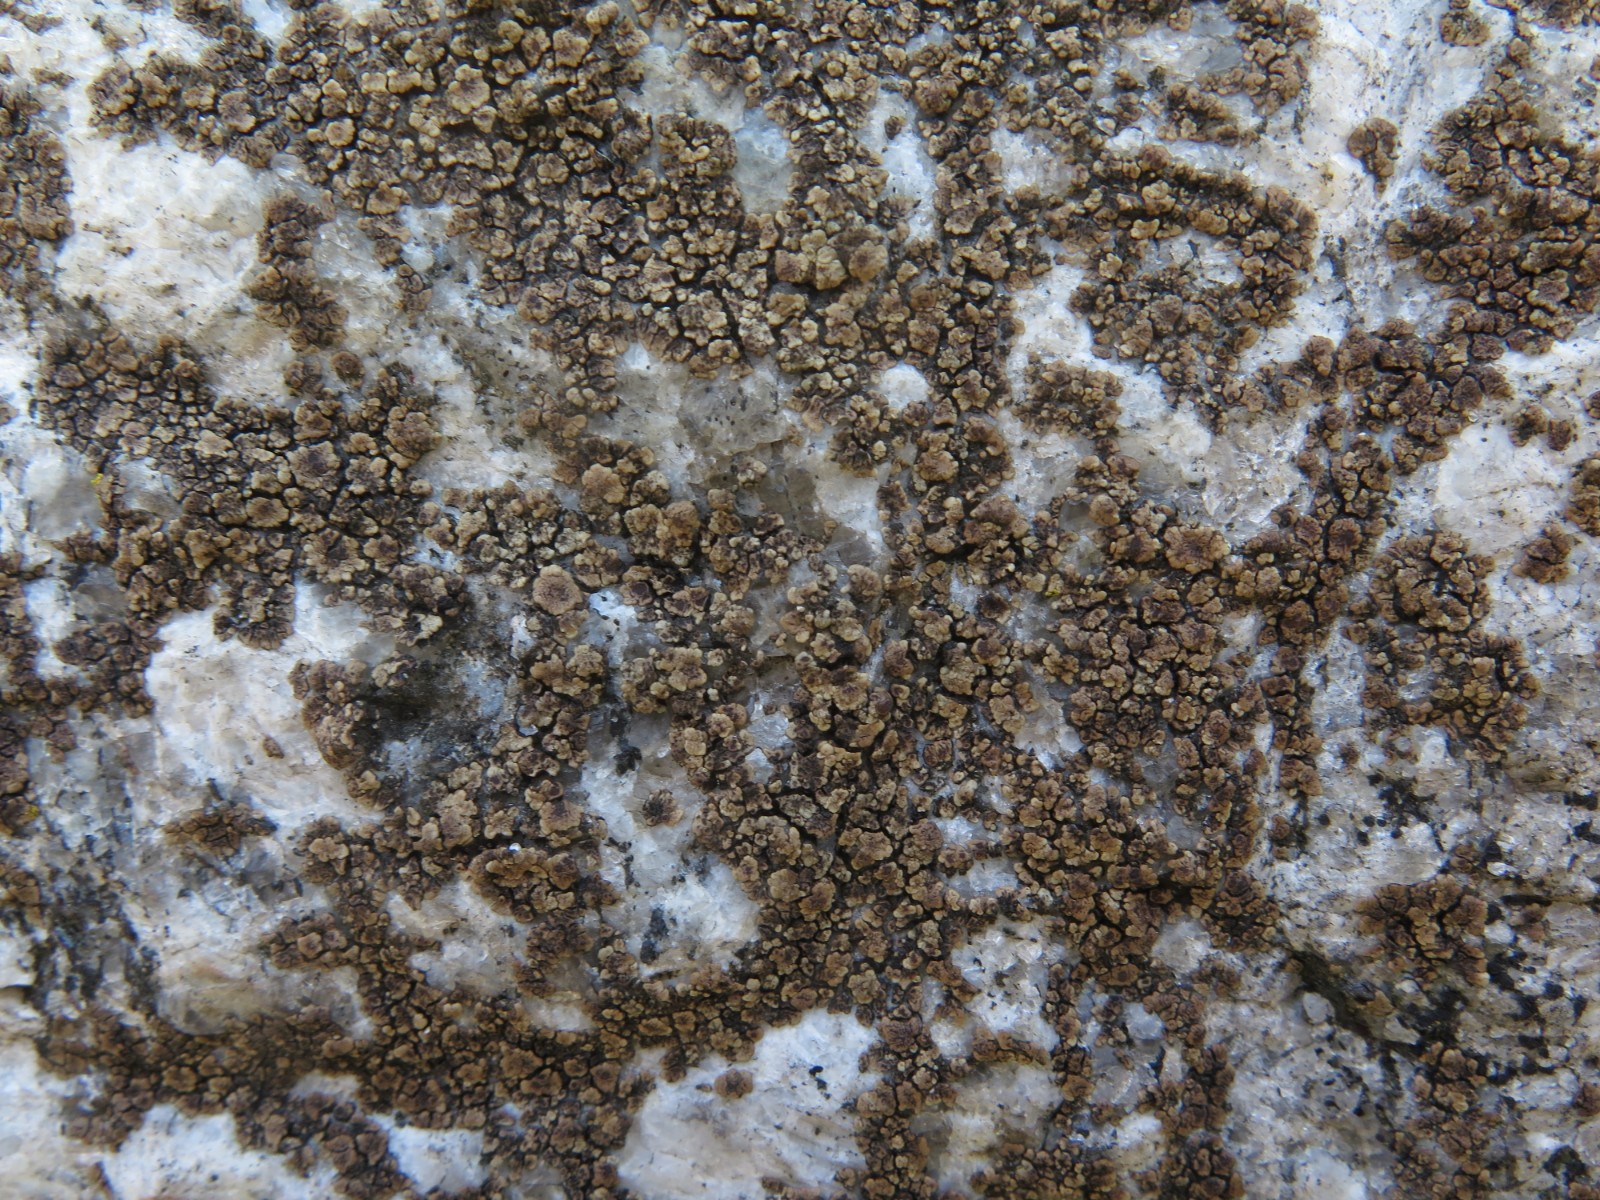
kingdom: Fungi
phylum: Ascomycota
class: Lecanoromycetes
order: Acarosporales
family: Acarosporaceae
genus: Acarospora
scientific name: Acarospora fuscata
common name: brun småsporelav
